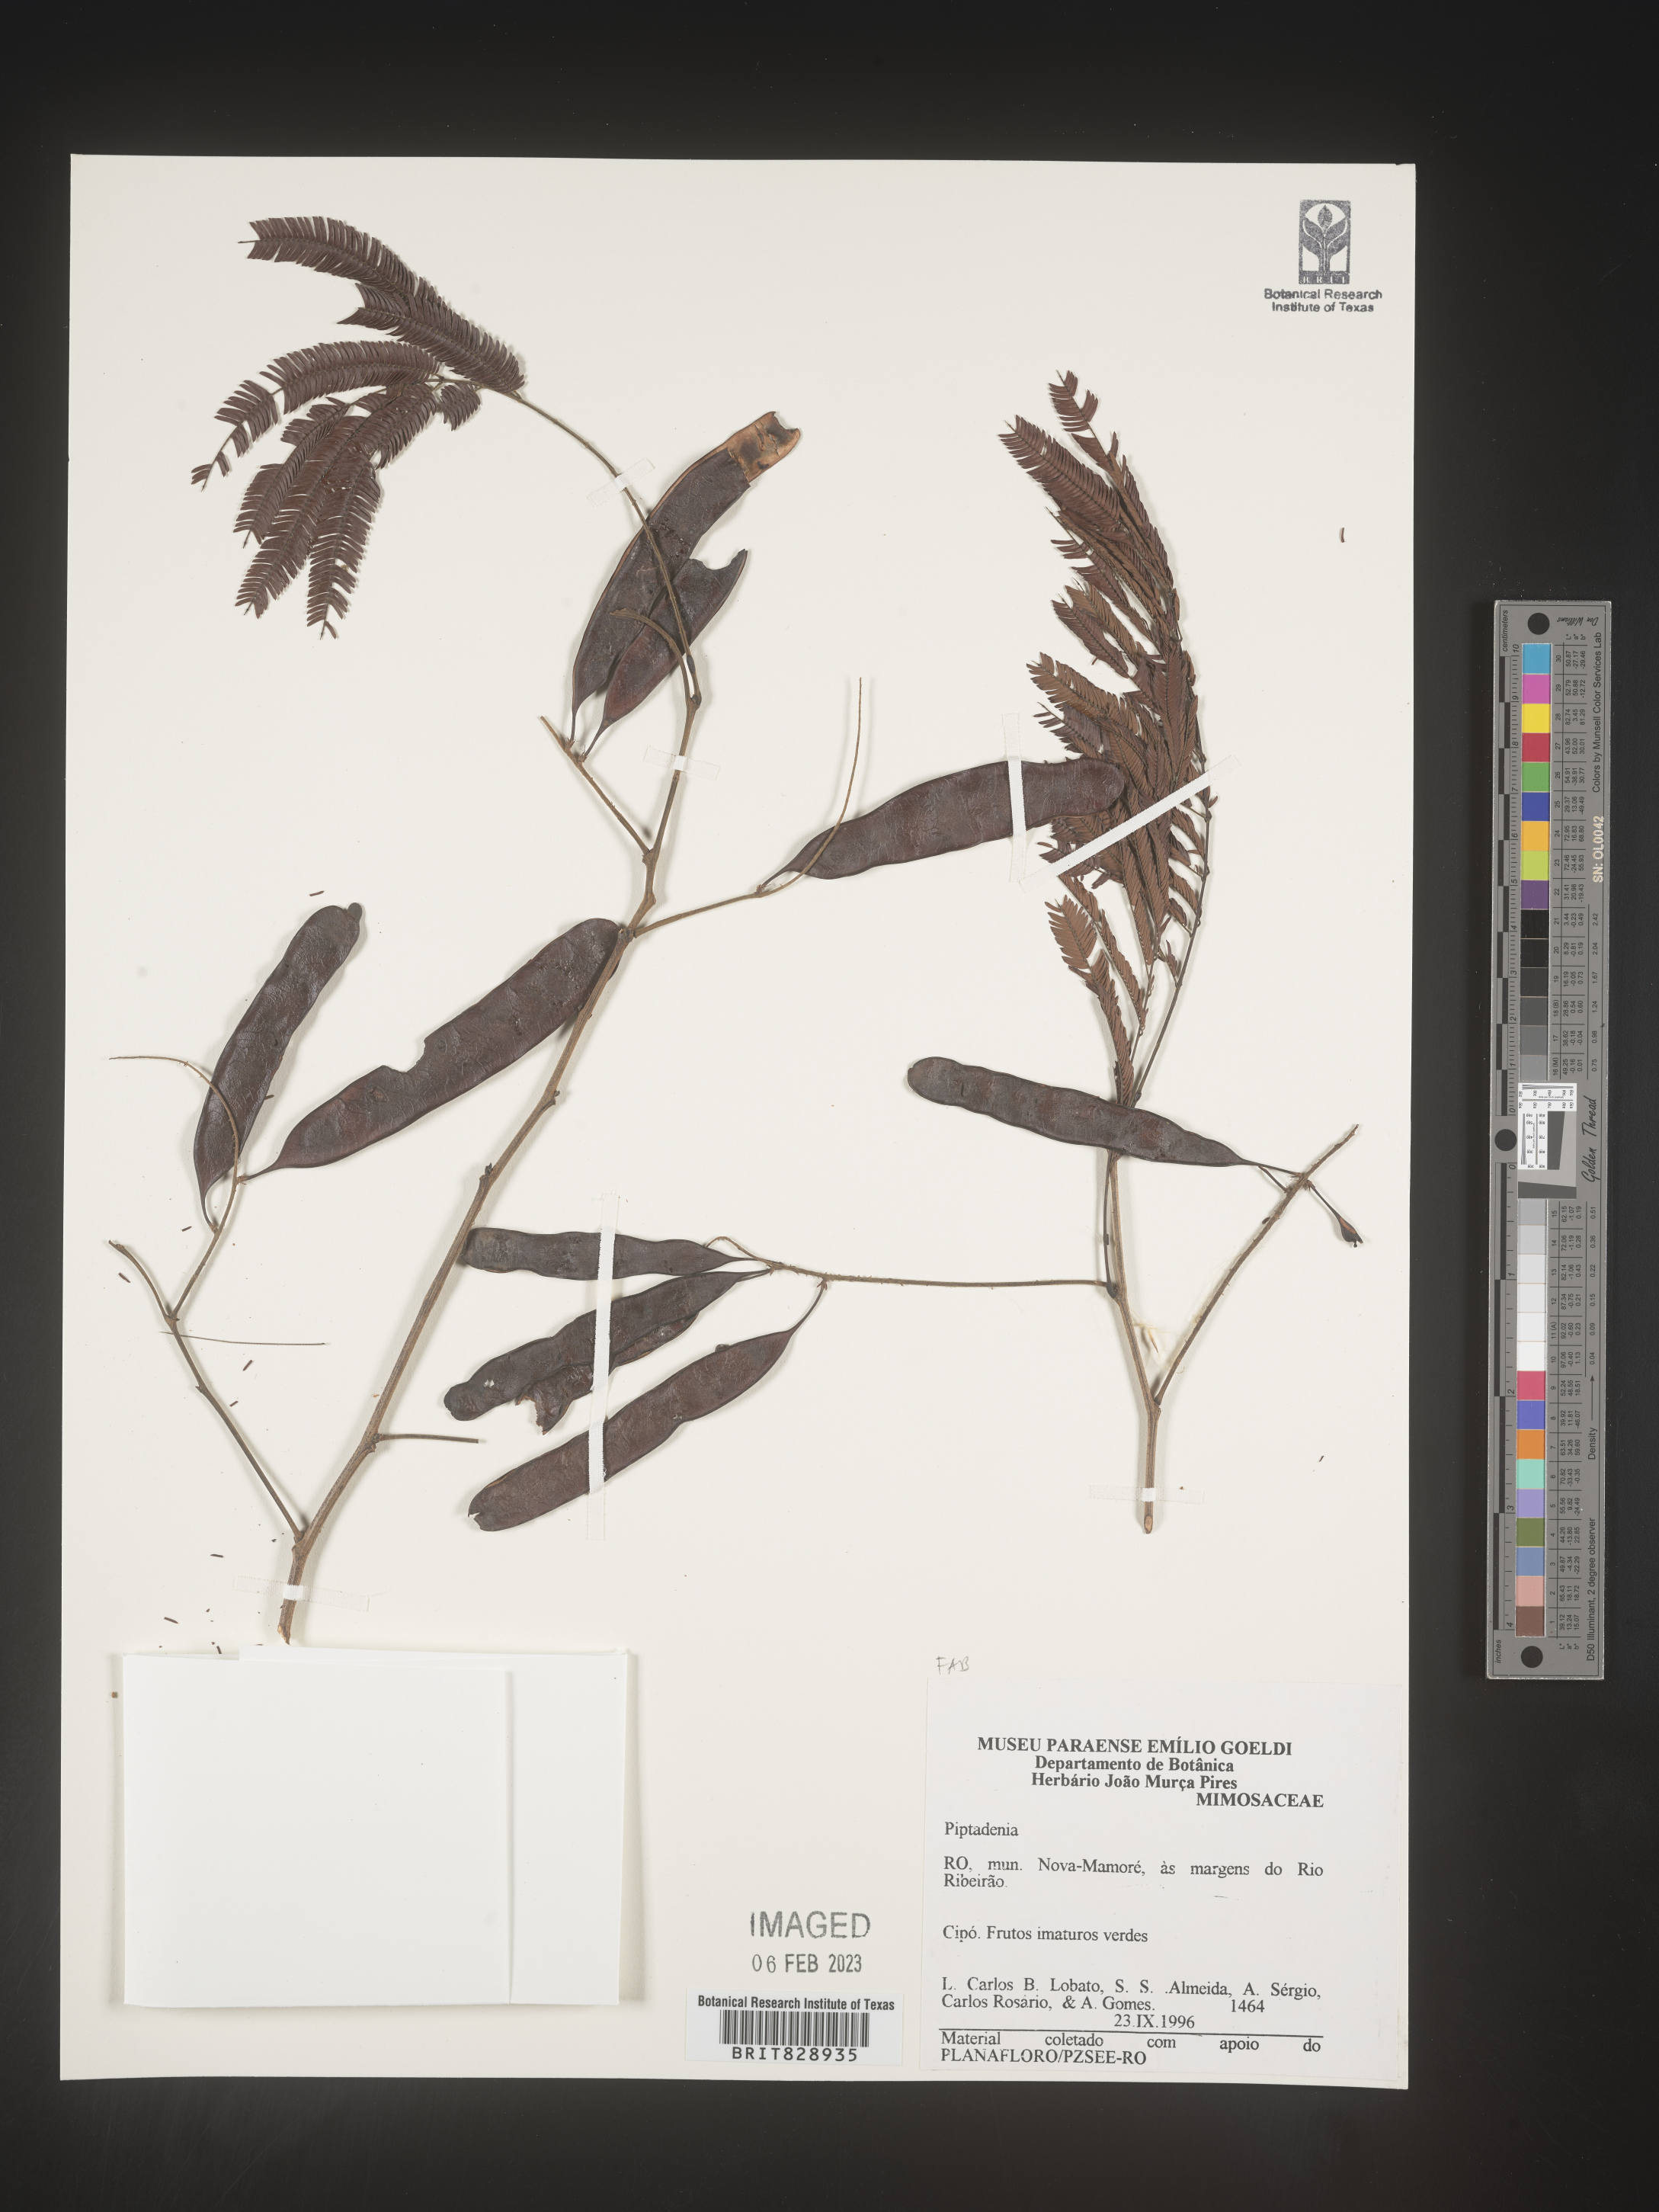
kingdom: Plantae
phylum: Tracheophyta
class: Magnoliopsida
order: Fabales
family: Fabaceae
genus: Piptadenia
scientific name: Piptadenia
